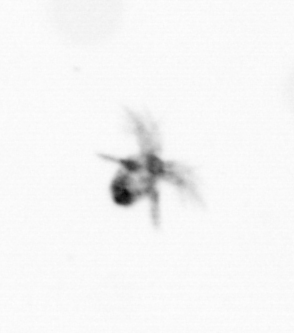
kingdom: Animalia
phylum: Arthropoda
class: Copepoda
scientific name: Copepoda
